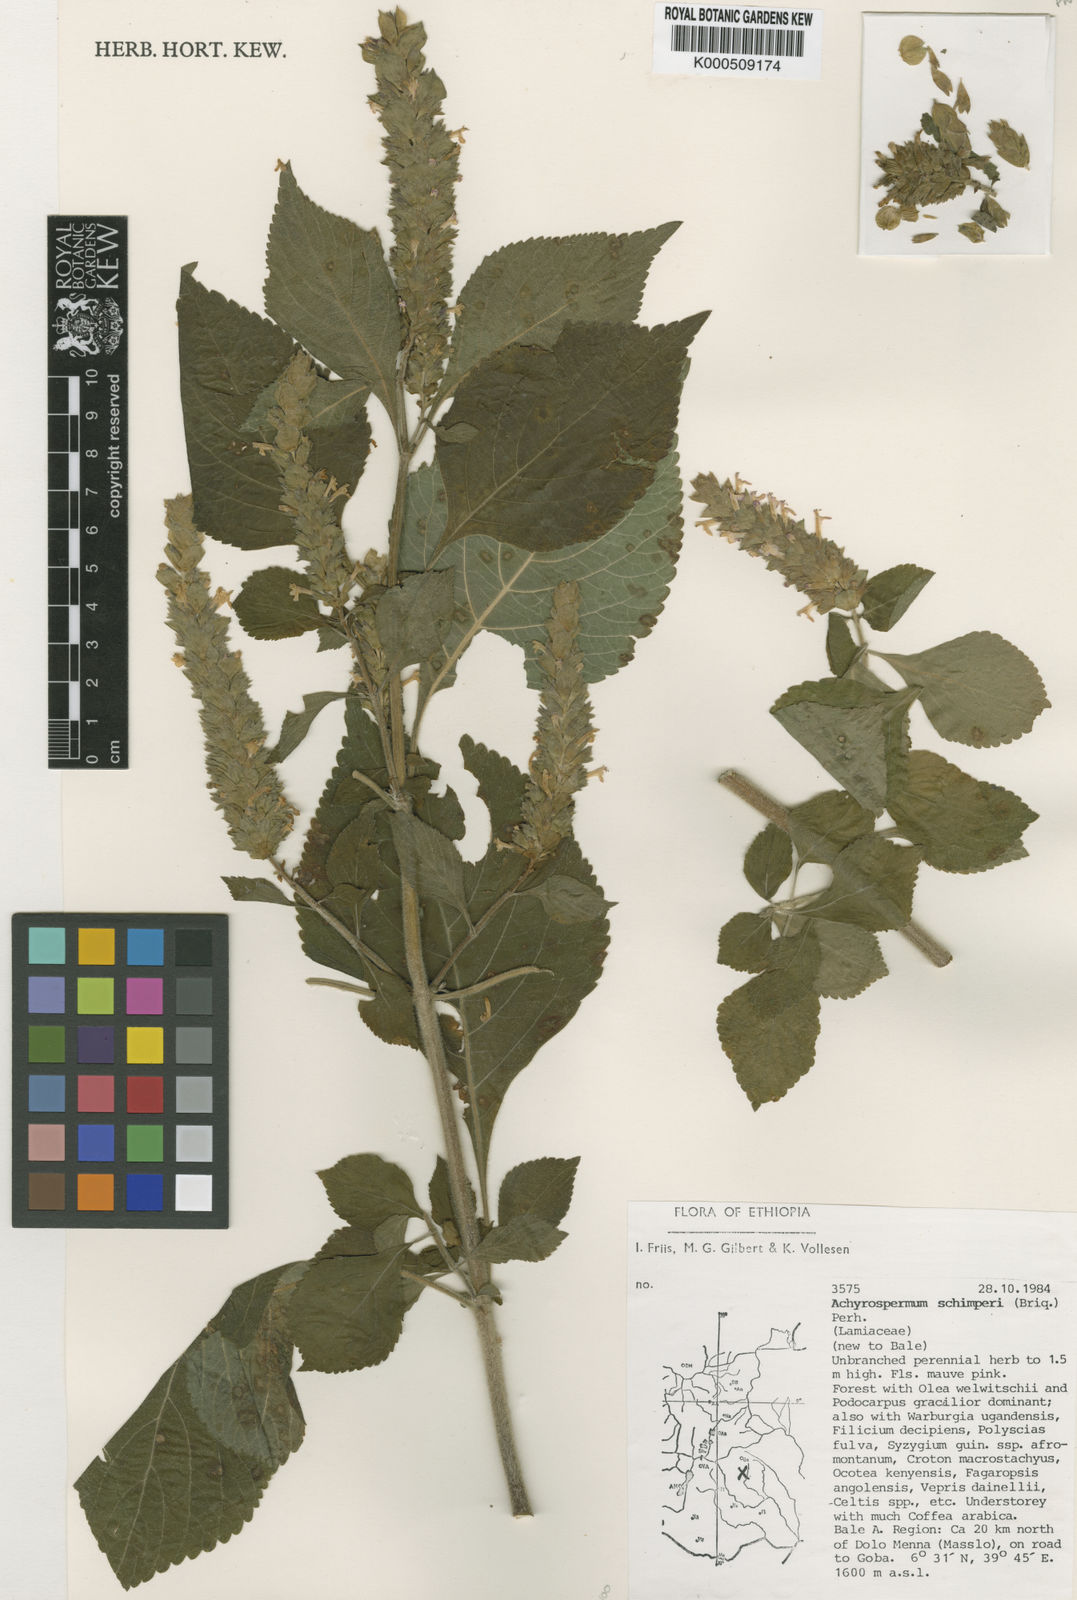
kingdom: Plantae
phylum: Tracheophyta
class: Magnoliopsida
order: Lamiales
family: Lamiaceae
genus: Achyrospermum
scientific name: Achyrospermum schimperi
